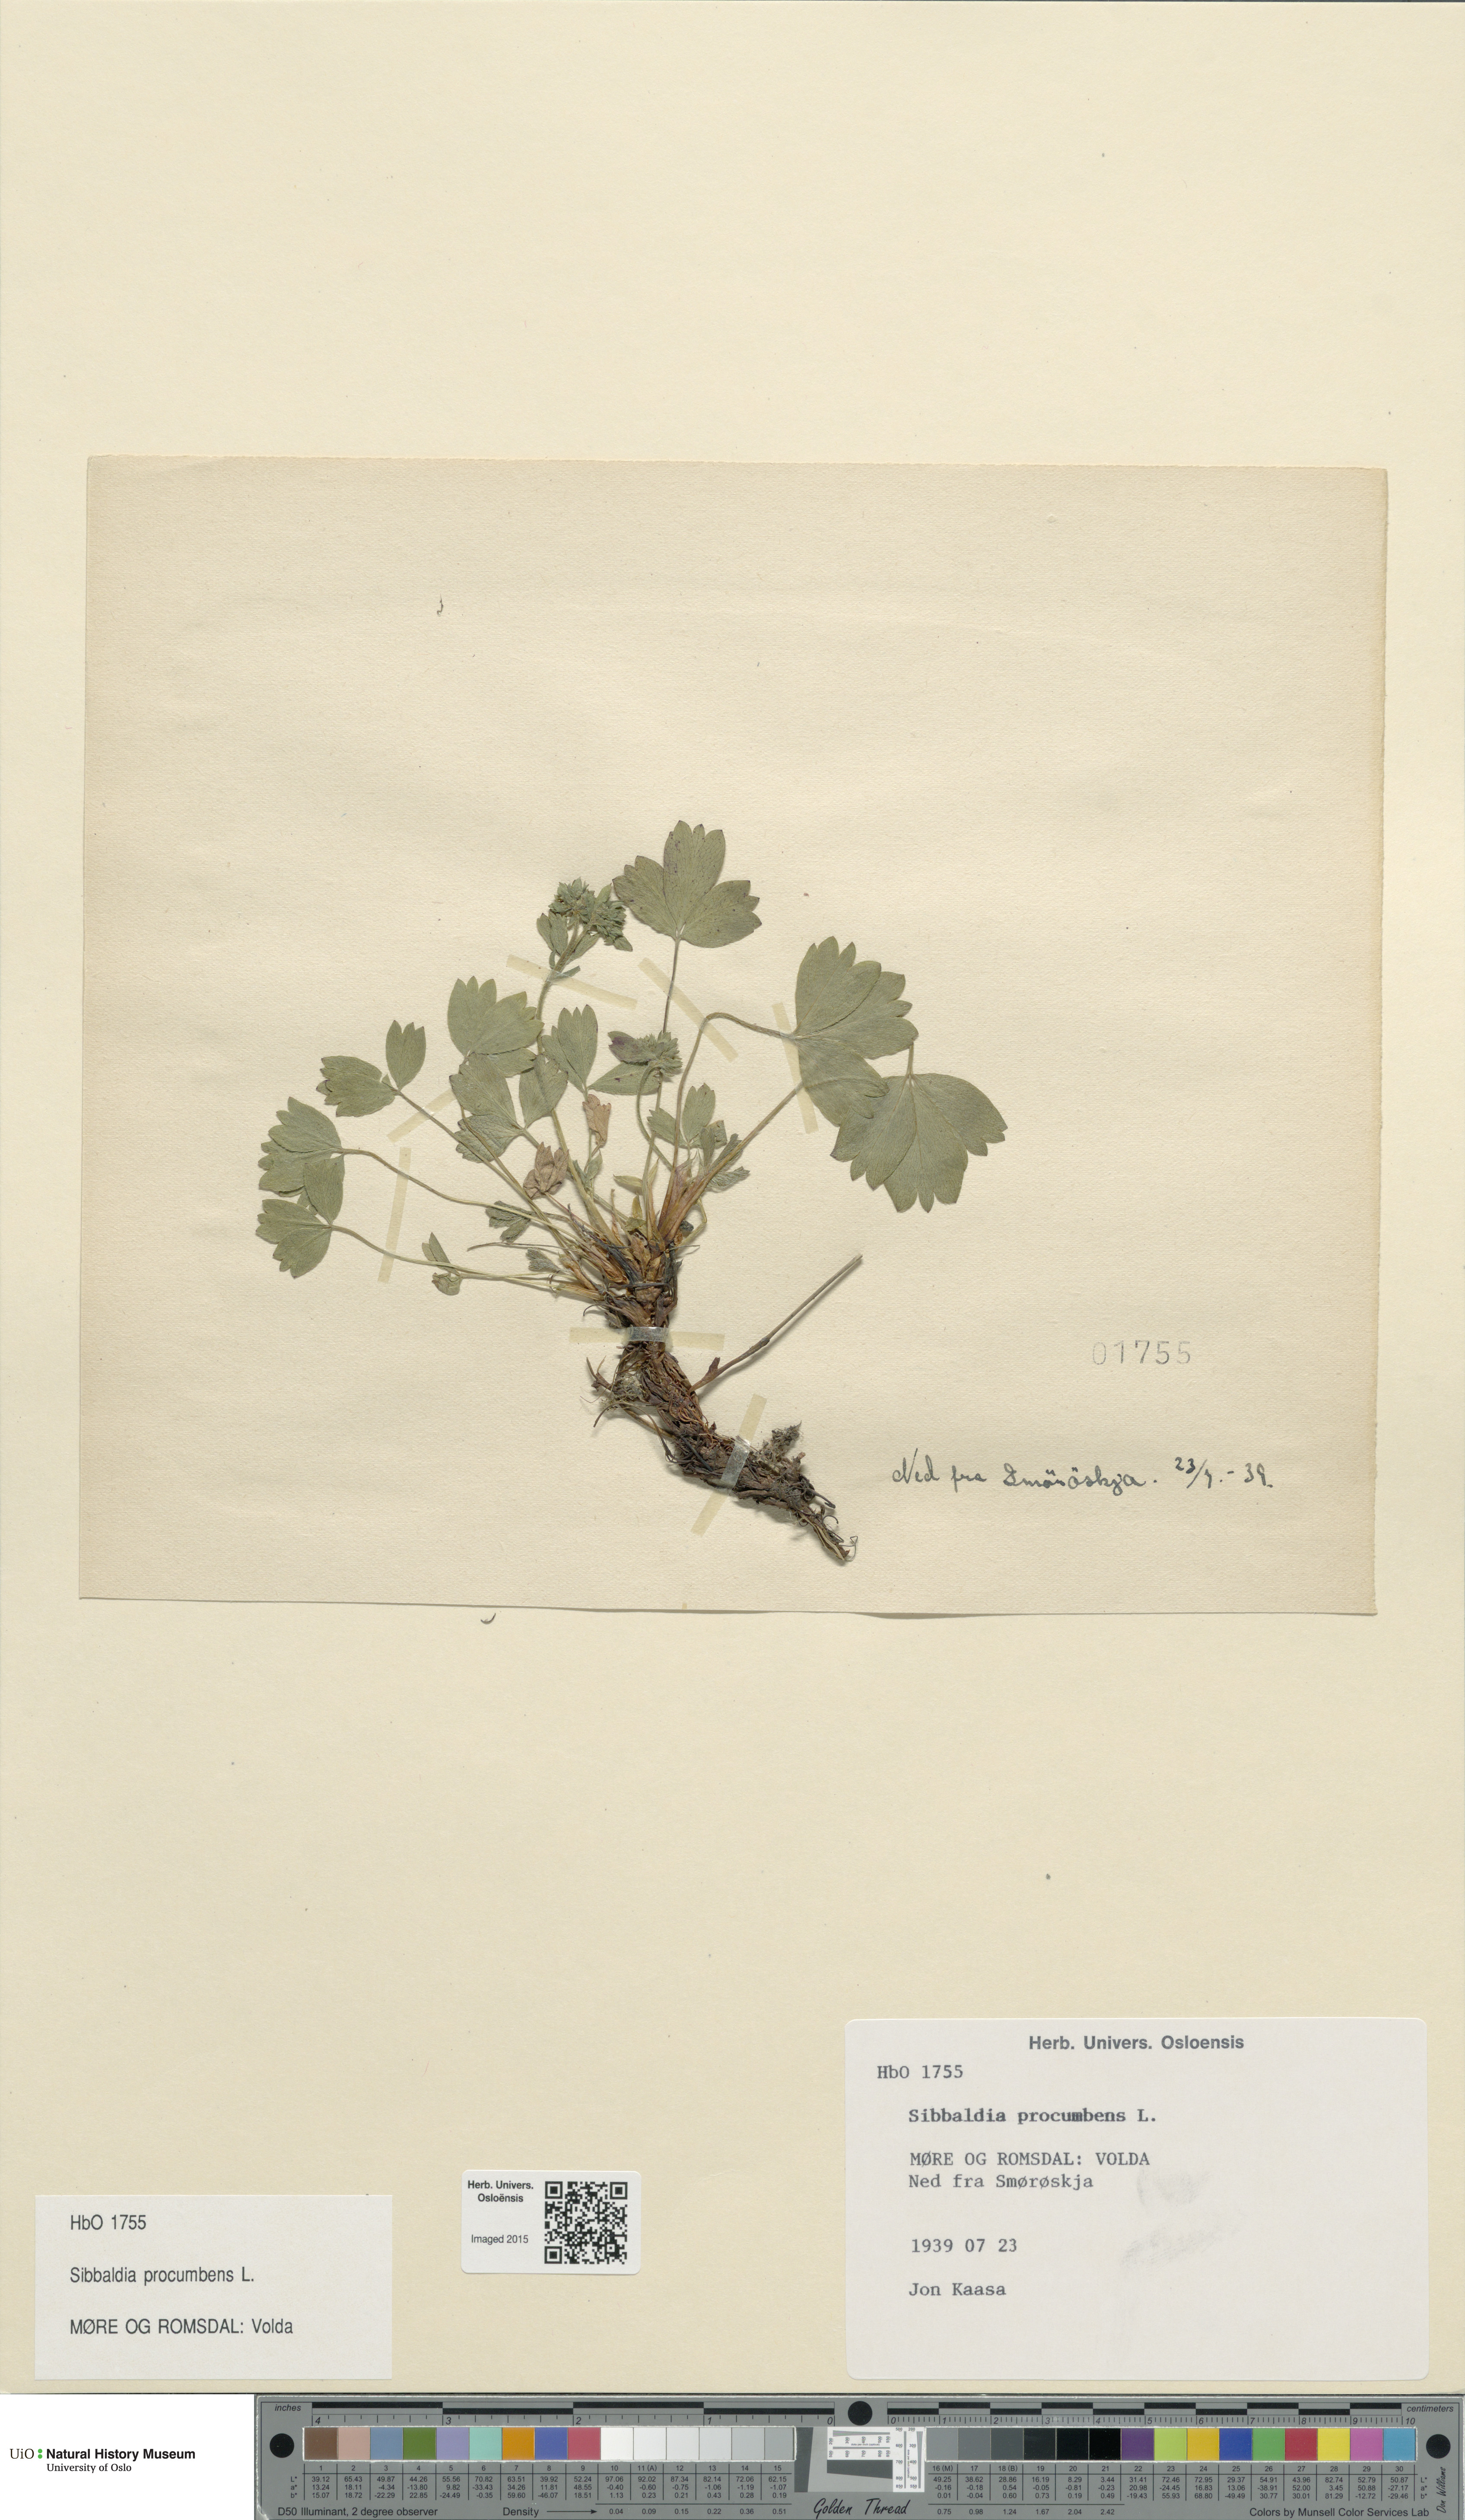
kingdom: Plantae
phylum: Tracheophyta
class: Magnoliopsida
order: Rosales
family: Rosaceae
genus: Sibbaldia
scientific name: Sibbaldia procumbens
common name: Creeping sibbaldia
